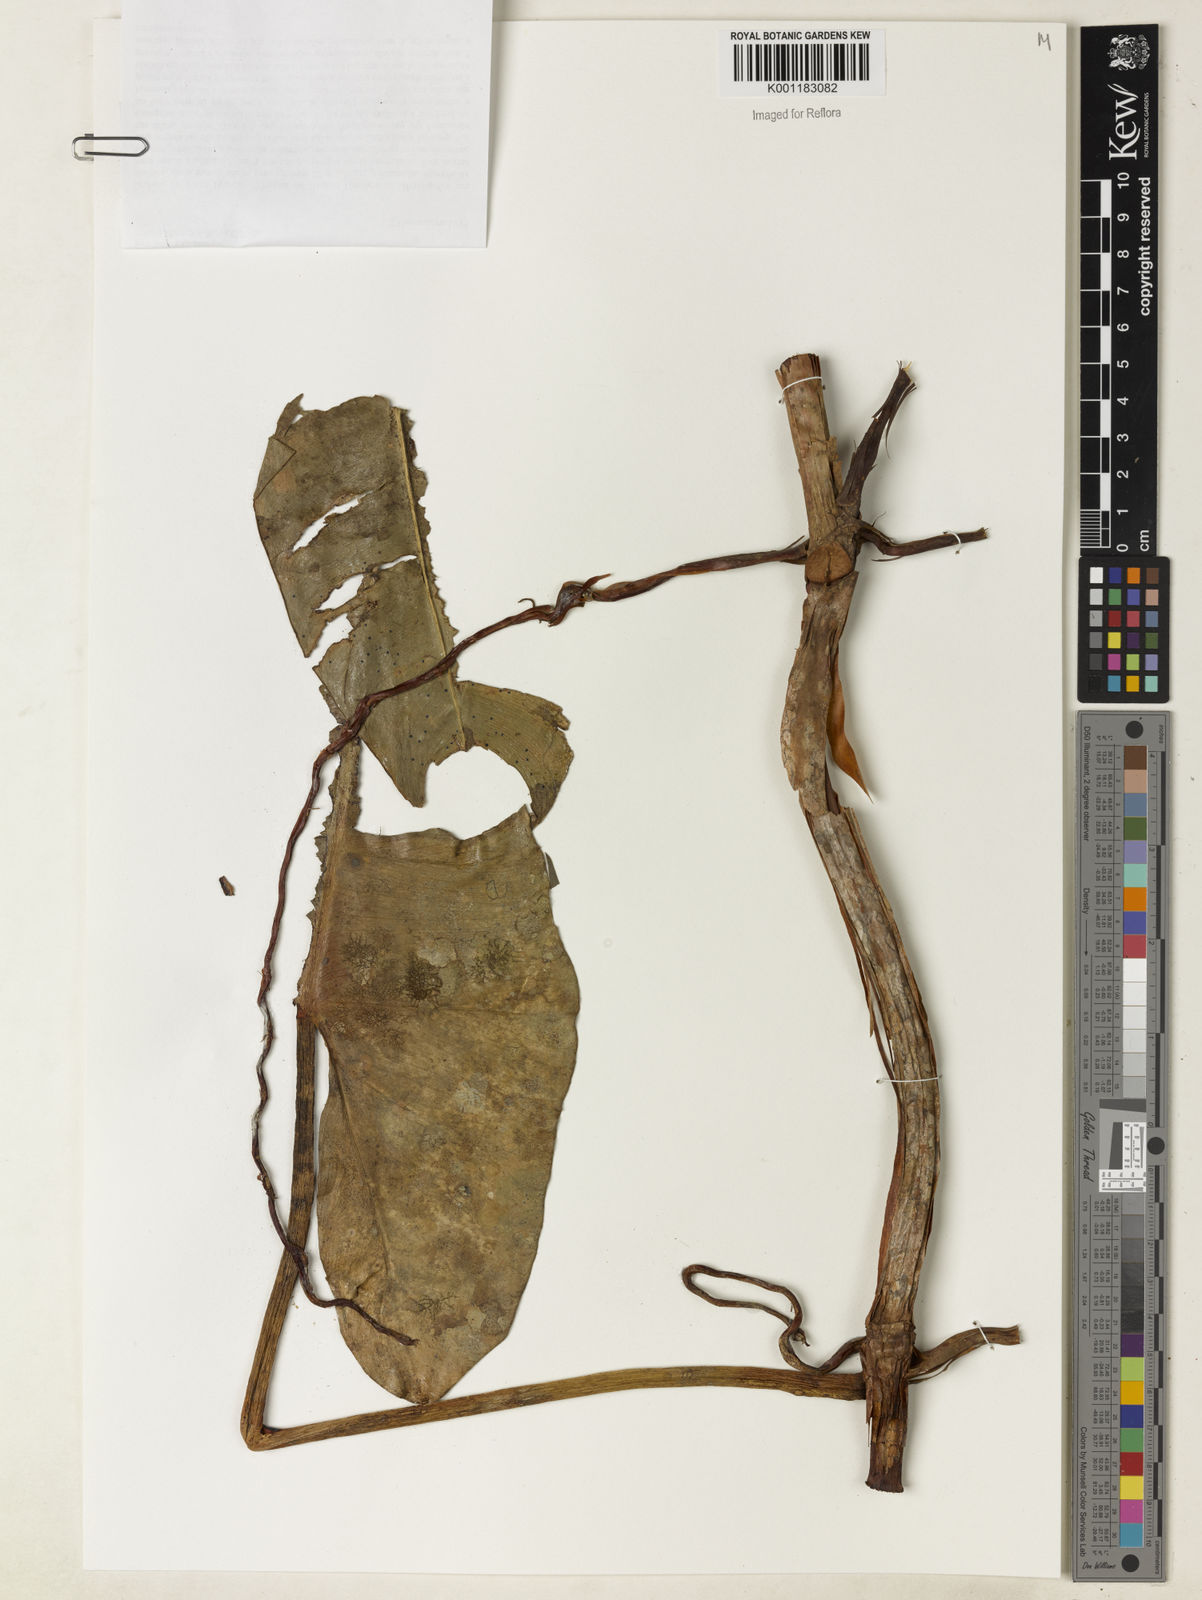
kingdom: Plantae
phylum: Tracheophyta
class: Liliopsida
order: Alismatales
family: Araceae
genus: Philodendron
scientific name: Philodendron billietiae
